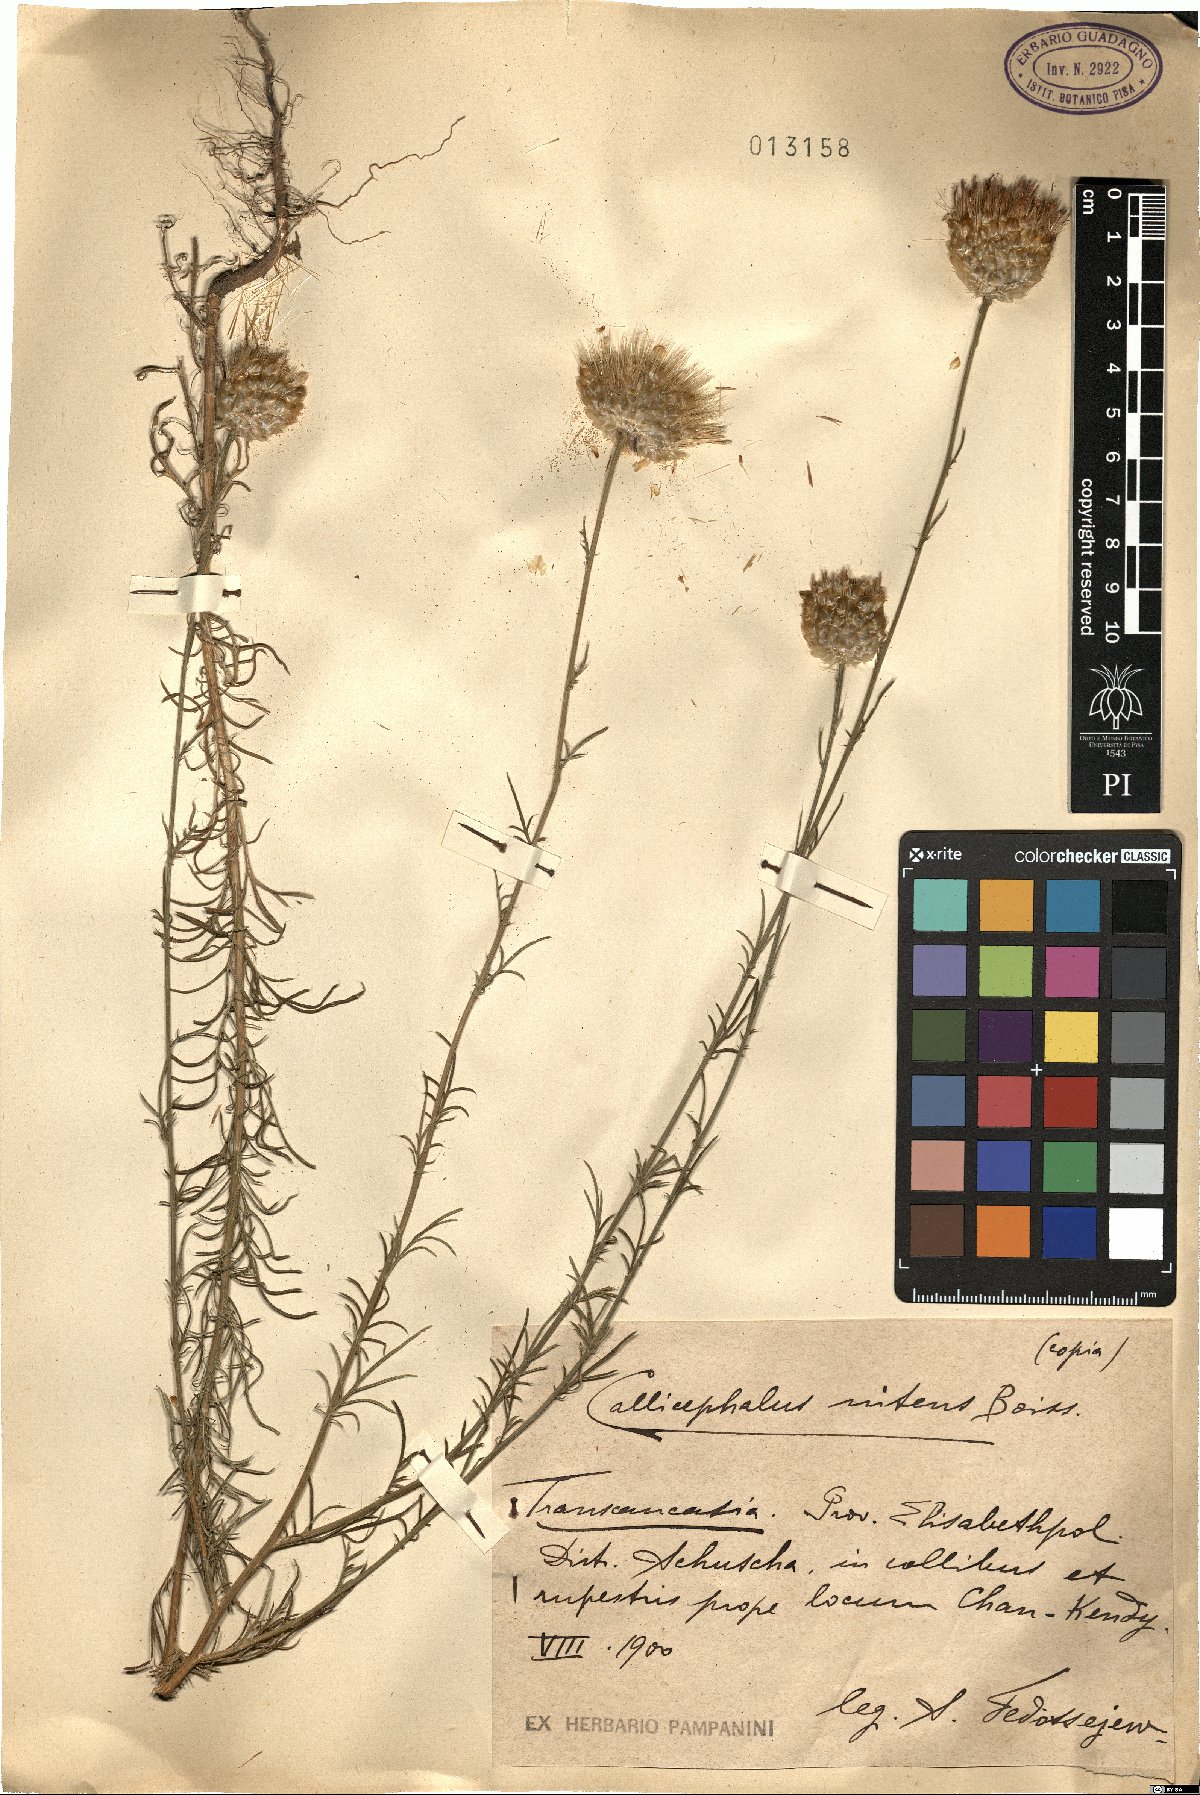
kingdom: Plantae
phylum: Tracheophyta
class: Magnoliopsida
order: Asterales
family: Asteraceae
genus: Callicephalus
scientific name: Callicephalus nitens
